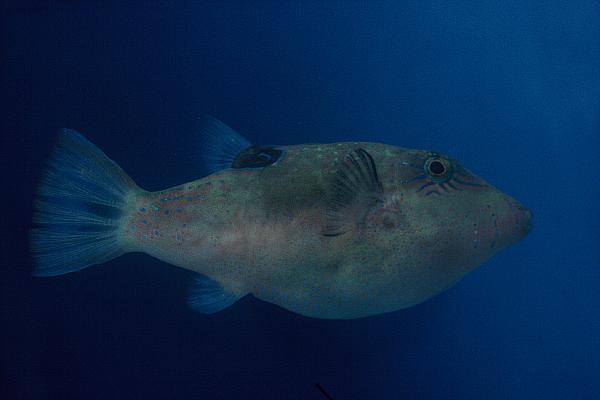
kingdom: Animalia
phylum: Chordata
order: Tetraodontiformes
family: Tetraodontidae
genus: Canthigaster
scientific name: Canthigaster bennetti
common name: Bennett's pufferfish
